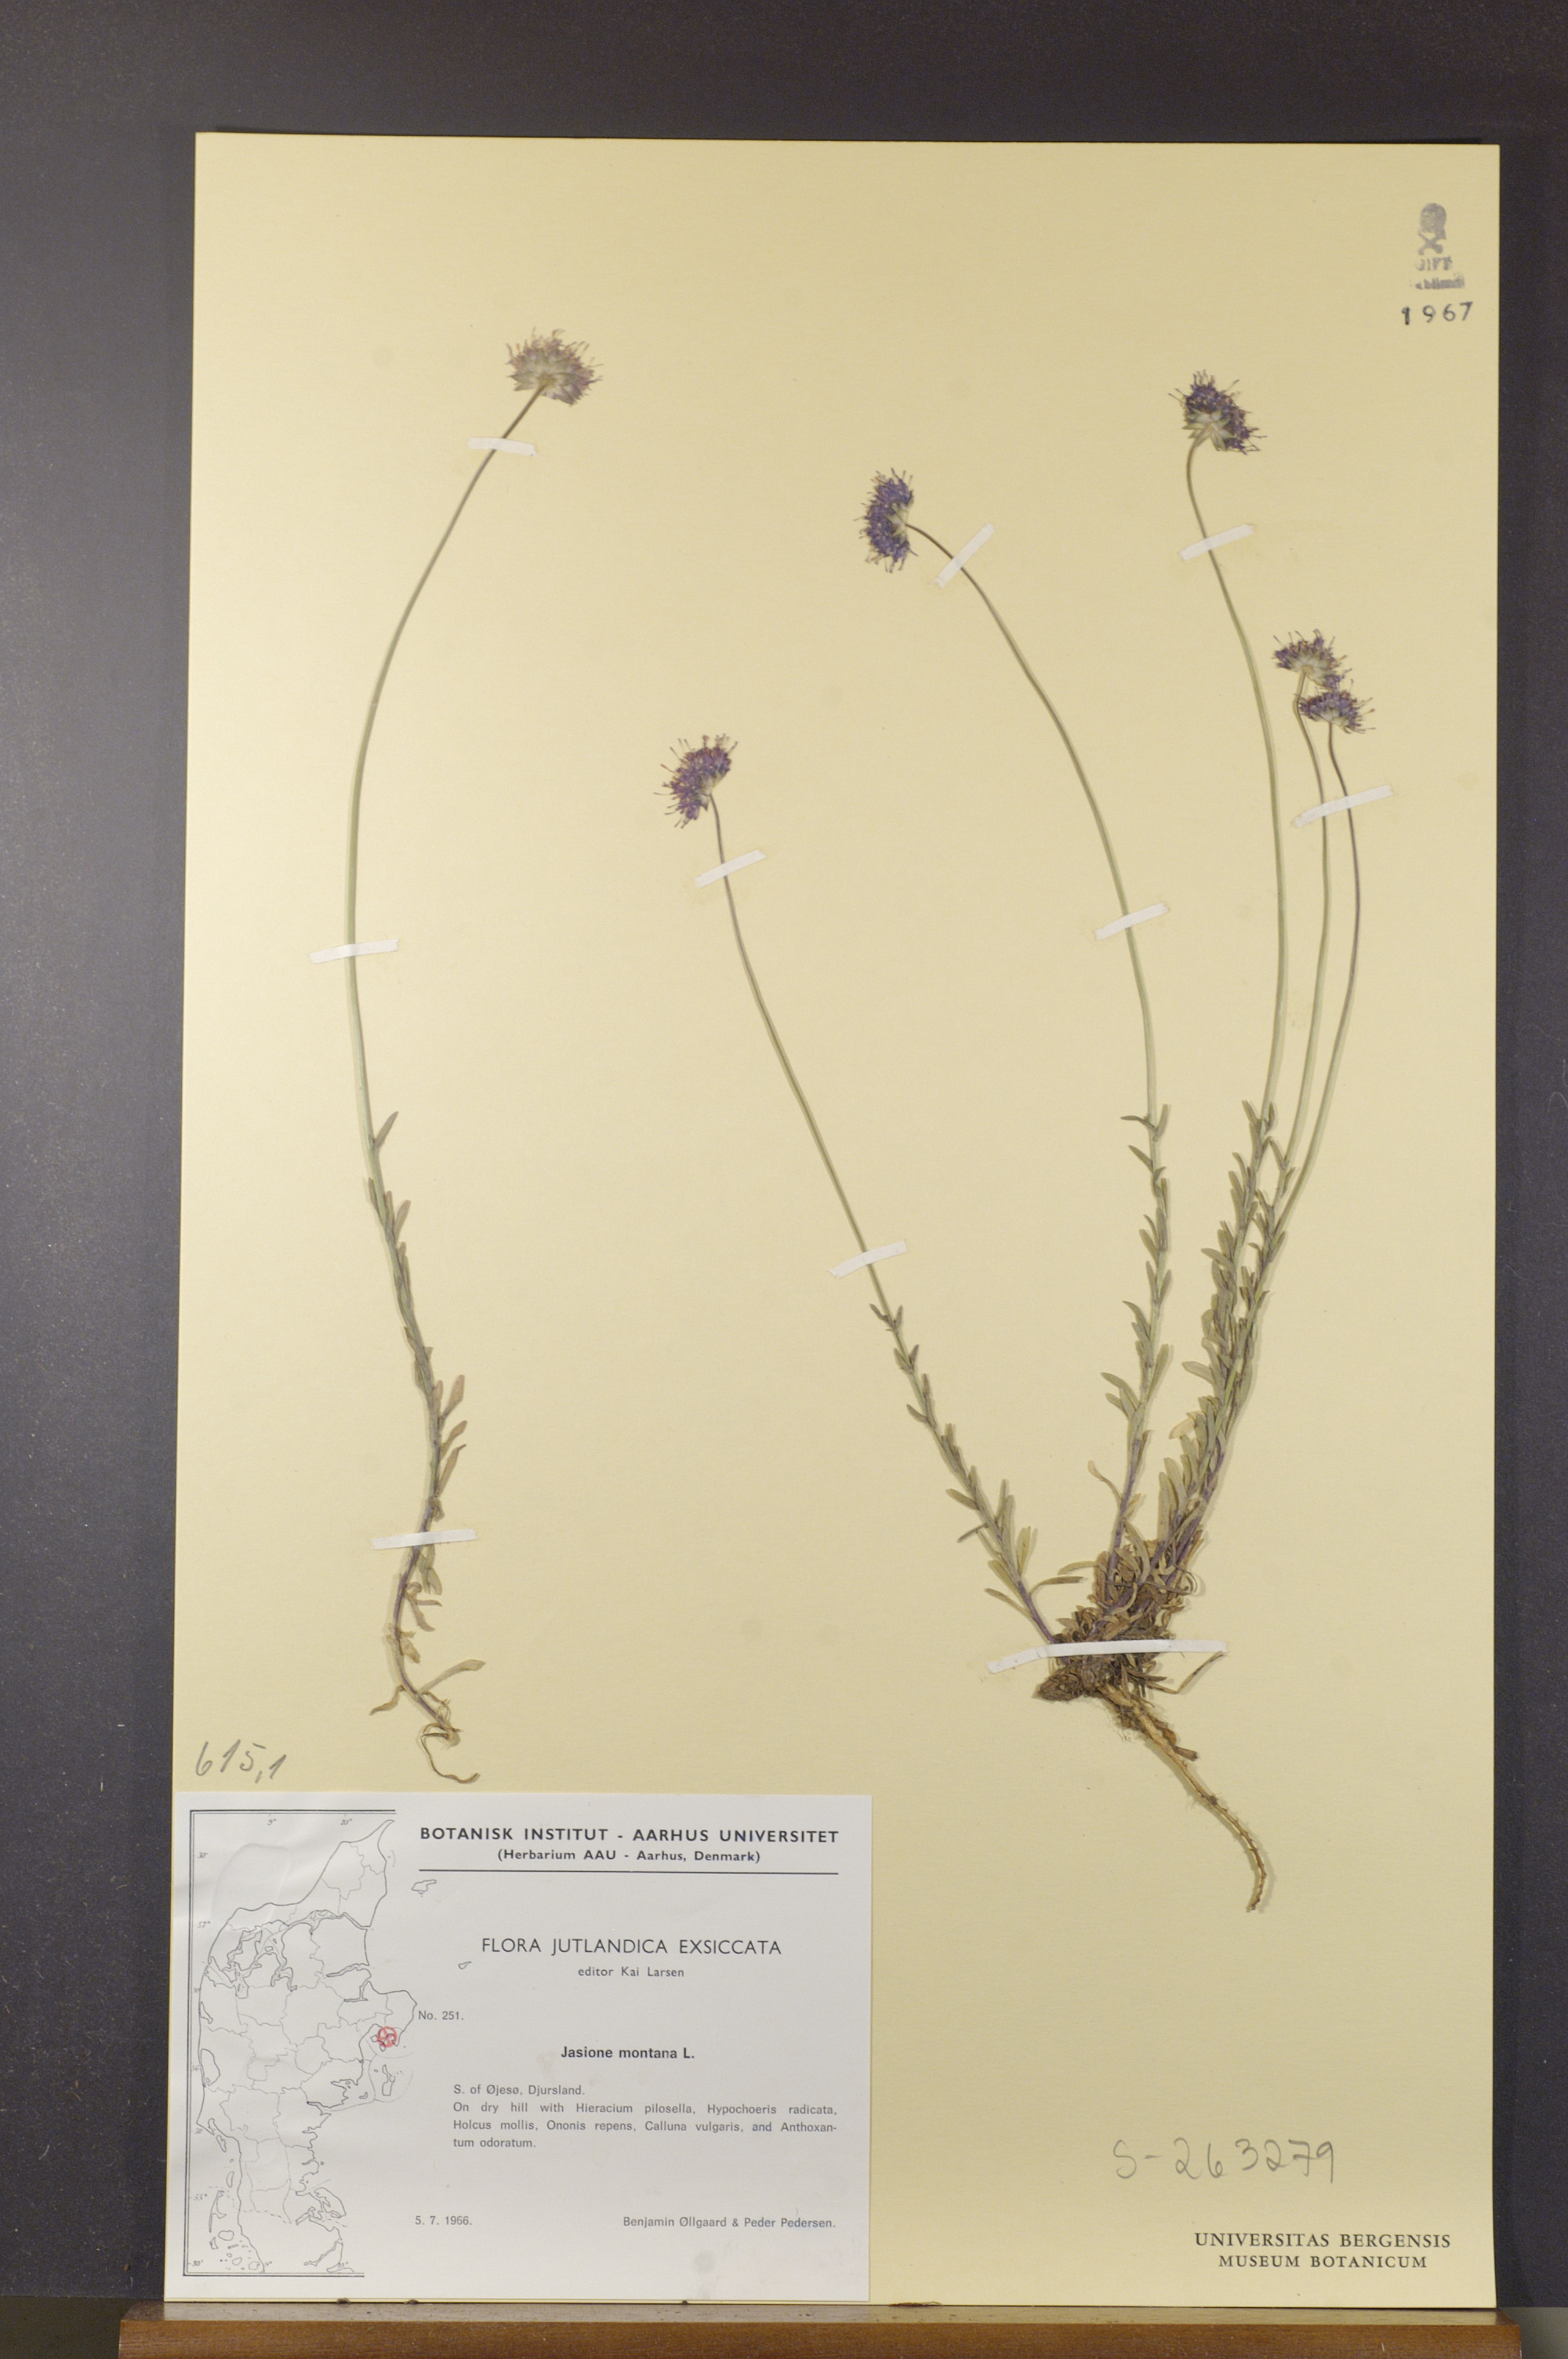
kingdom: Plantae
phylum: Tracheophyta
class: Magnoliopsida
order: Asterales
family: Campanulaceae
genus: Jasione
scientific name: Jasione montana
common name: Sheep's-bit
